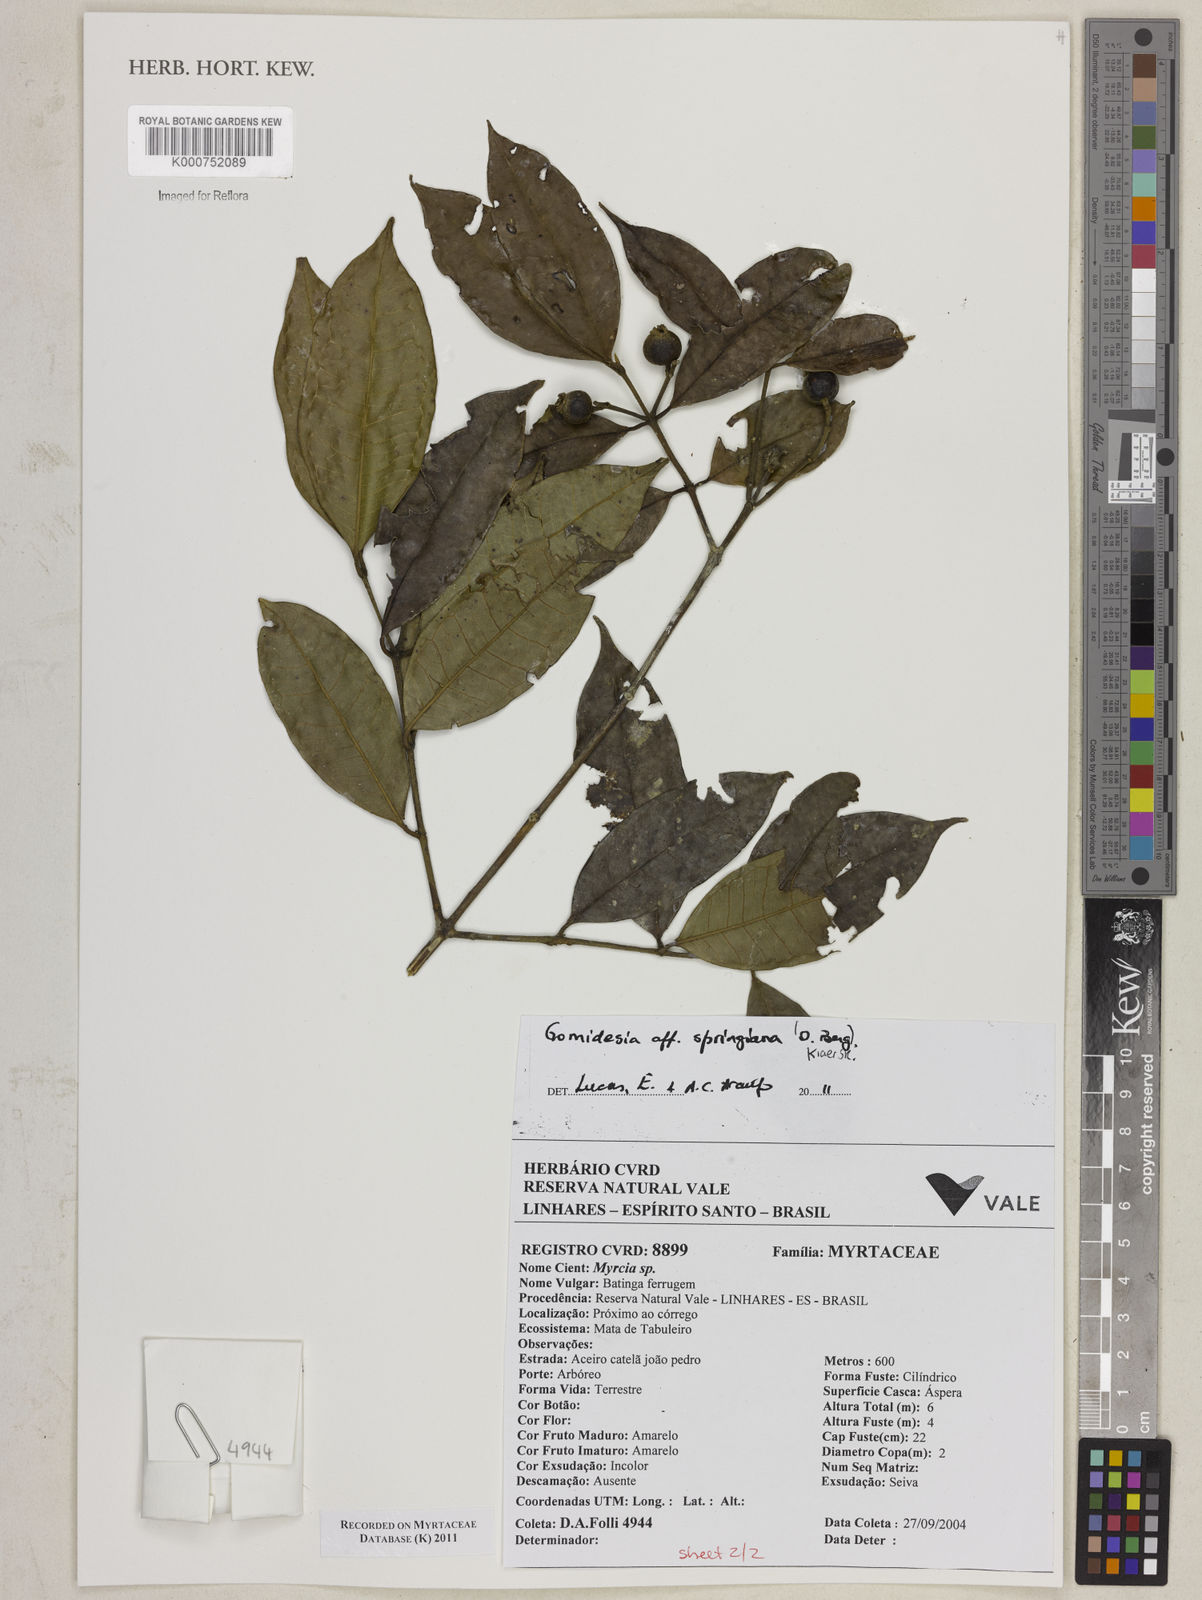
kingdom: Plantae
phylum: Tracheophyta
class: Magnoliopsida
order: Myrtales
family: Myrtaceae
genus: Myrcia
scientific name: Myrcia
